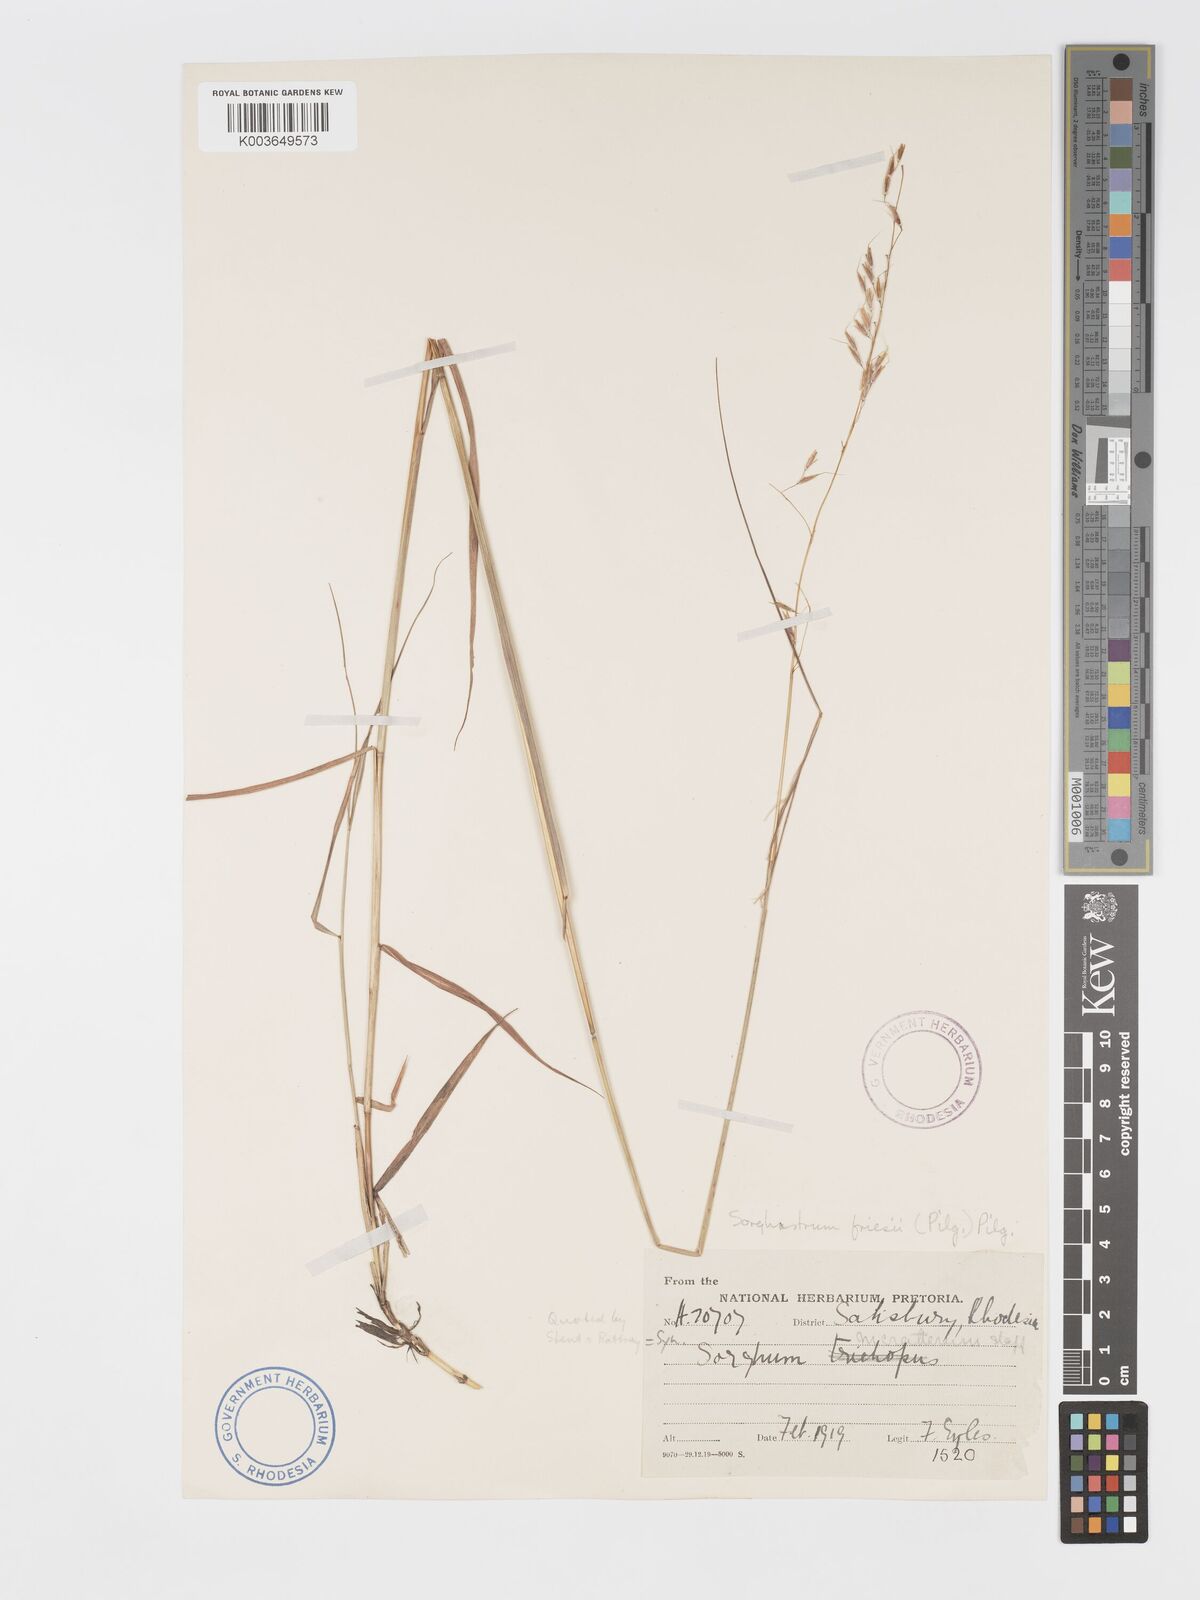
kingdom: Plantae
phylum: Tracheophyta
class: Liliopsida
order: Poales
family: Poaceae
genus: Sorghastrum
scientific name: Sorghastrum nudipes
